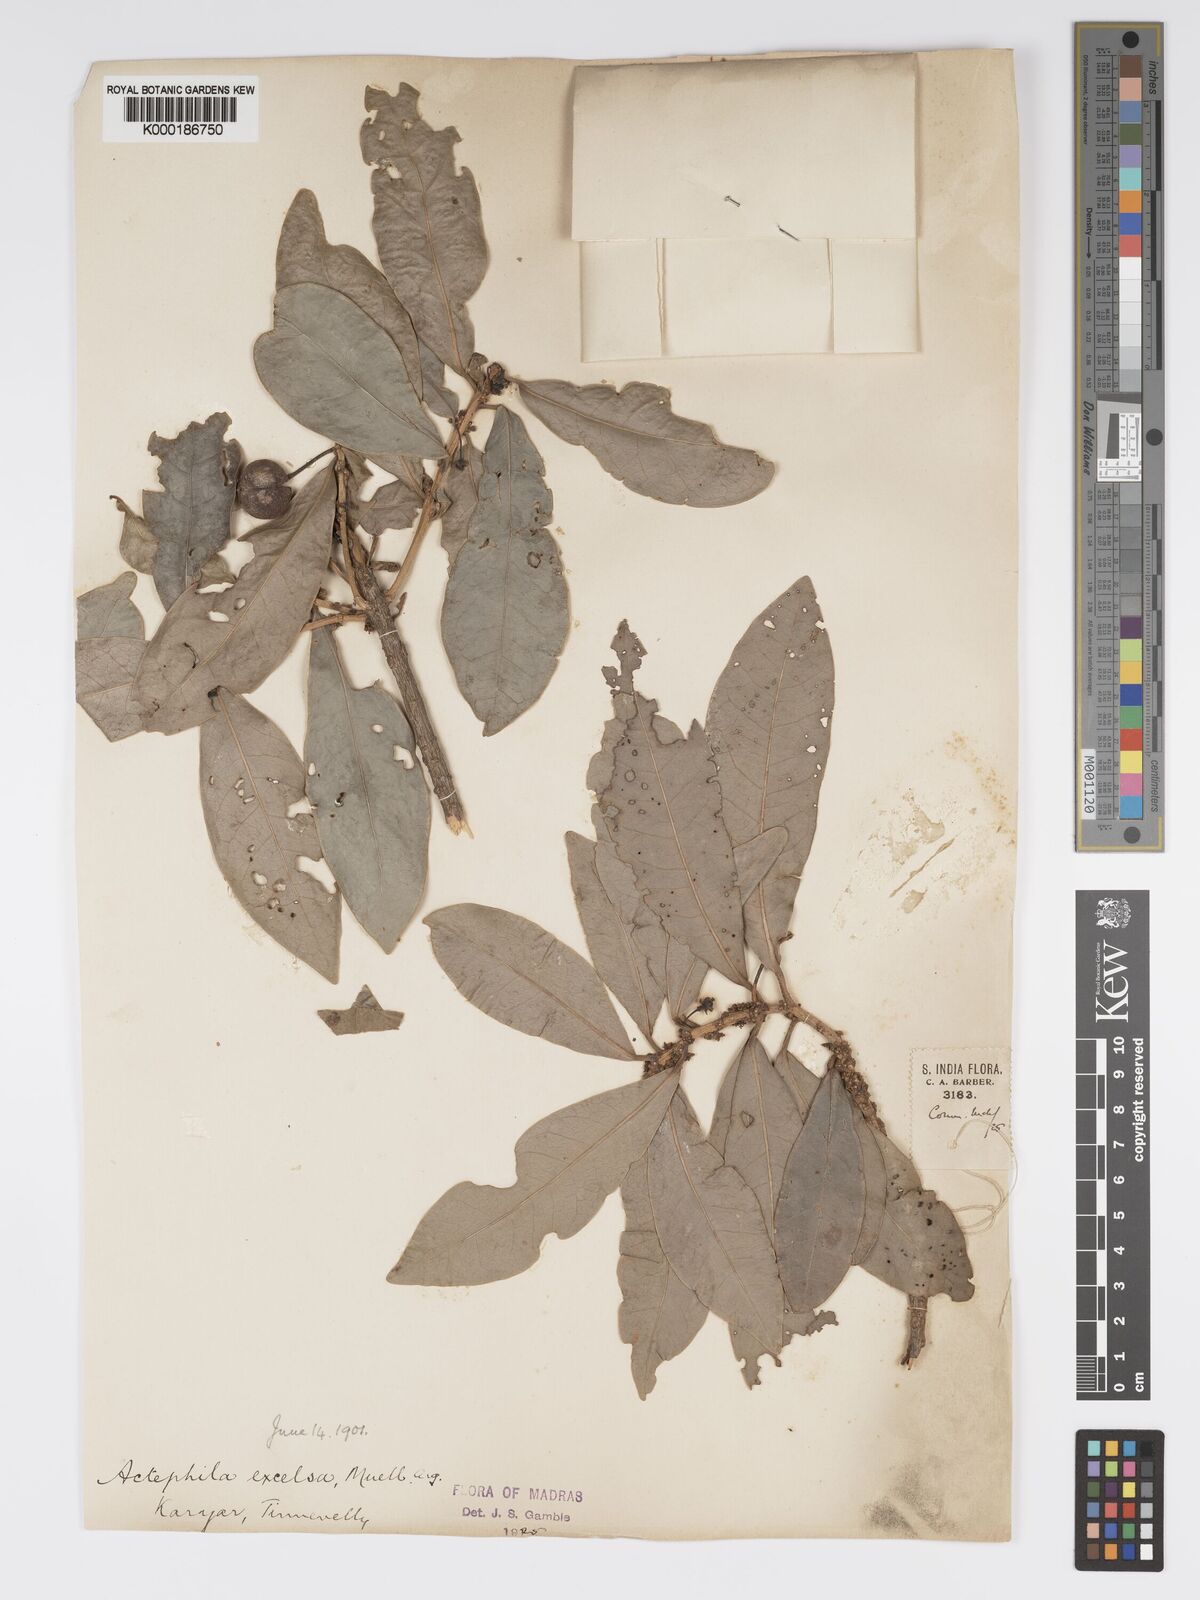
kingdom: Plantae
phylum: Tracheophyta
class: Magnoliopsida
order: Malpighiales
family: Phyllanthaceae
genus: Actephila
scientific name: Actephila excelsa
